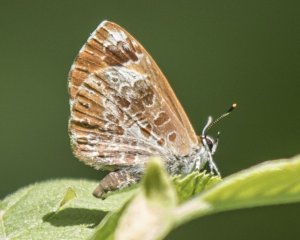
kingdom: Animalia
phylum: Arthropoda
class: Insecta
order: Lepidoptera
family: Lycaenidae
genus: Feniseca
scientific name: Feniseca tarquinius
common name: Harvester
